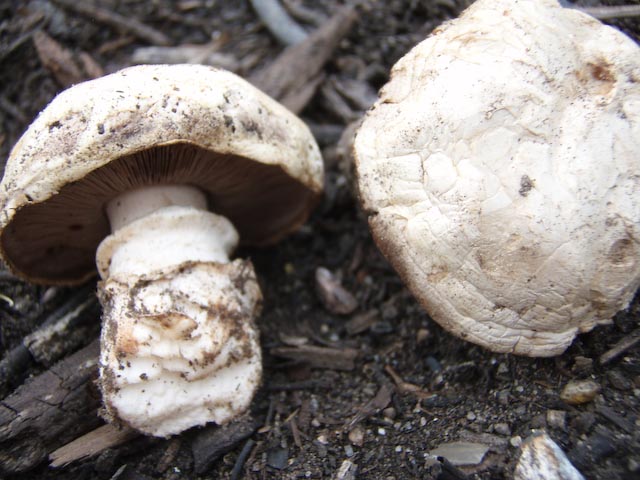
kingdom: Fungi
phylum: Basidiomycota
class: Agaricomycetes
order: Agaricales
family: Agaricaceae
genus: Agaricus
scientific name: Agaricus bitorquis
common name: vej-champignon
